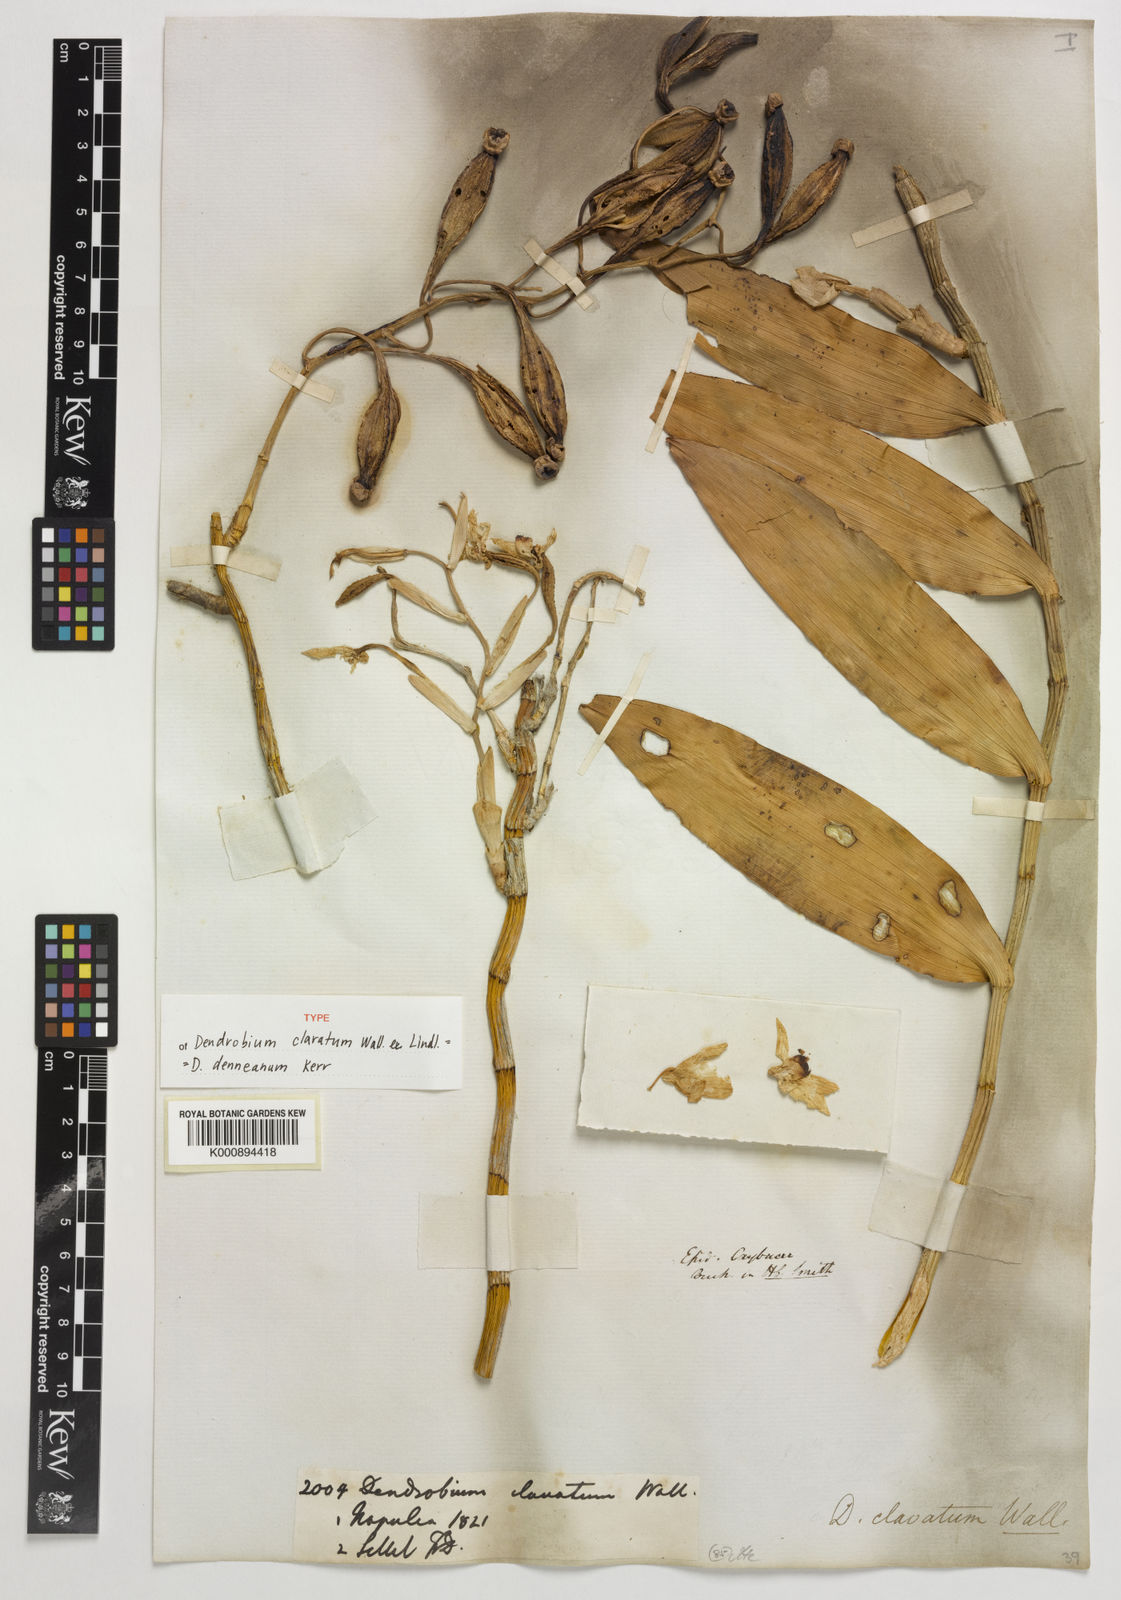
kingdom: Plantae
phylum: Tracheophyta
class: Liliopsida
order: Asparagales
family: Orchidaceae
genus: Dendrobium
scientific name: Dendrobium denneanum
